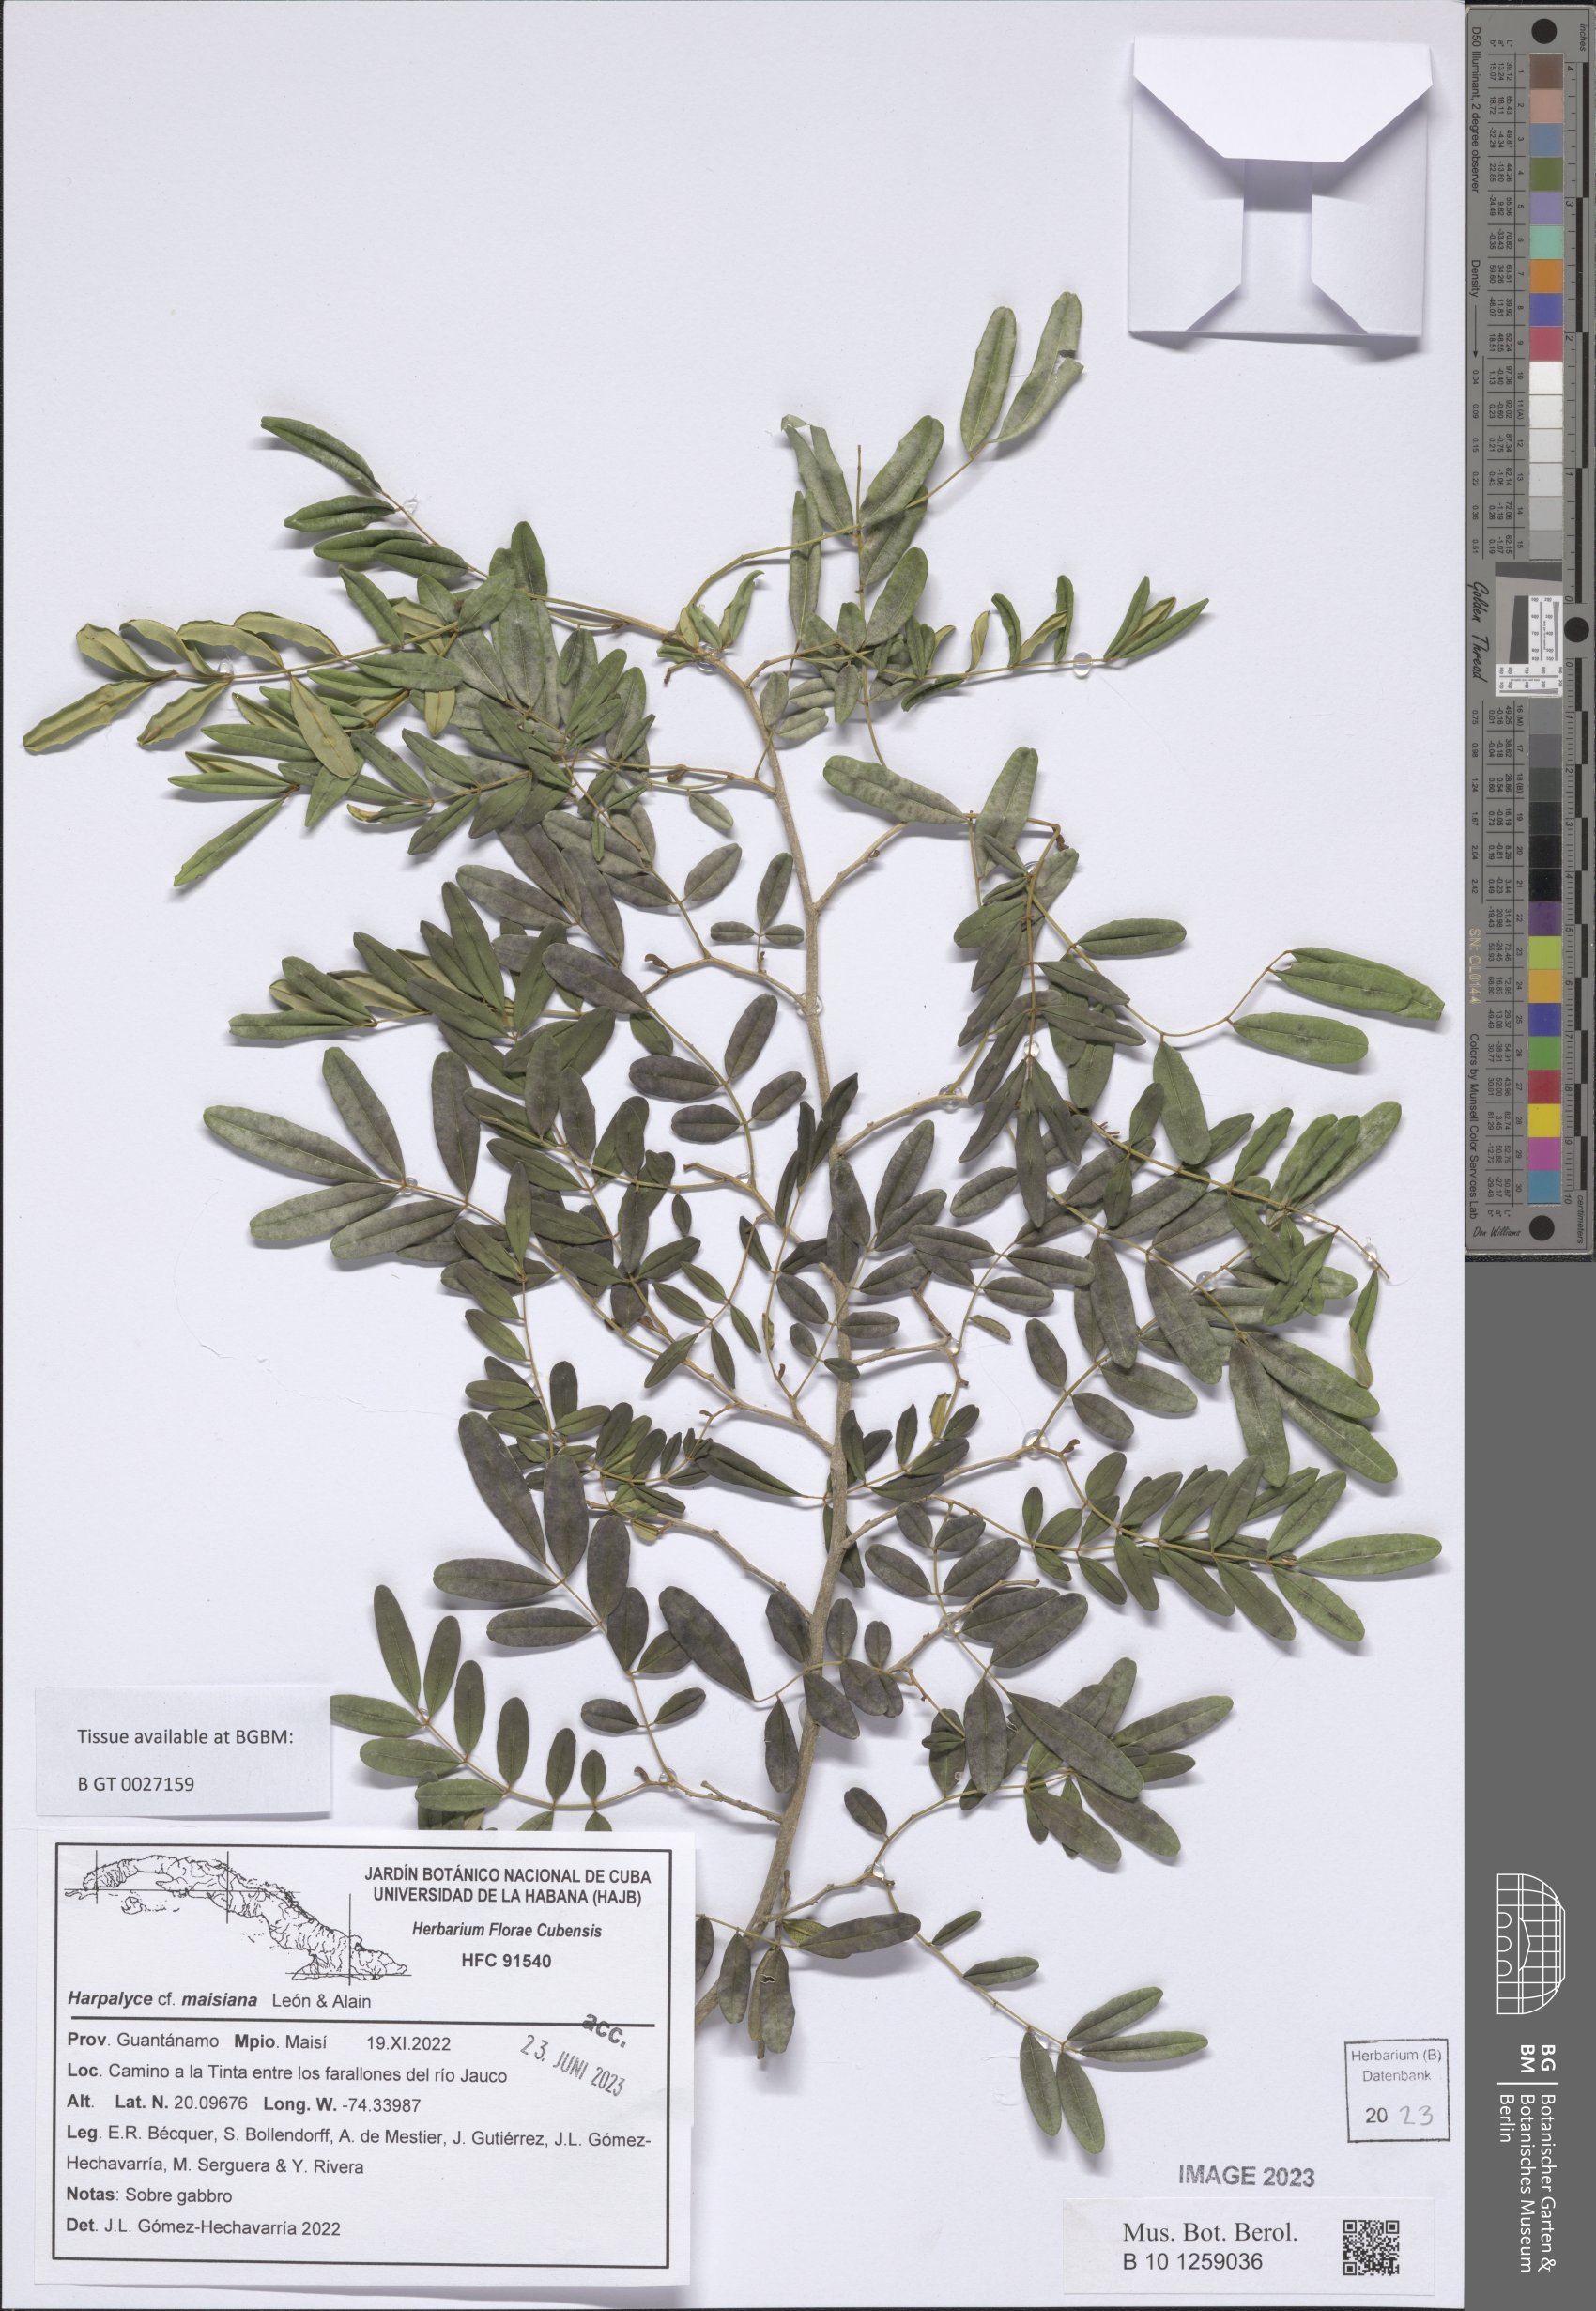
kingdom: Plantae
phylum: Tracheophyta
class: Magnoliopsida
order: Fabales
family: Fabaceae
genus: Harpalyce
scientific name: Harpalyce maisiana
